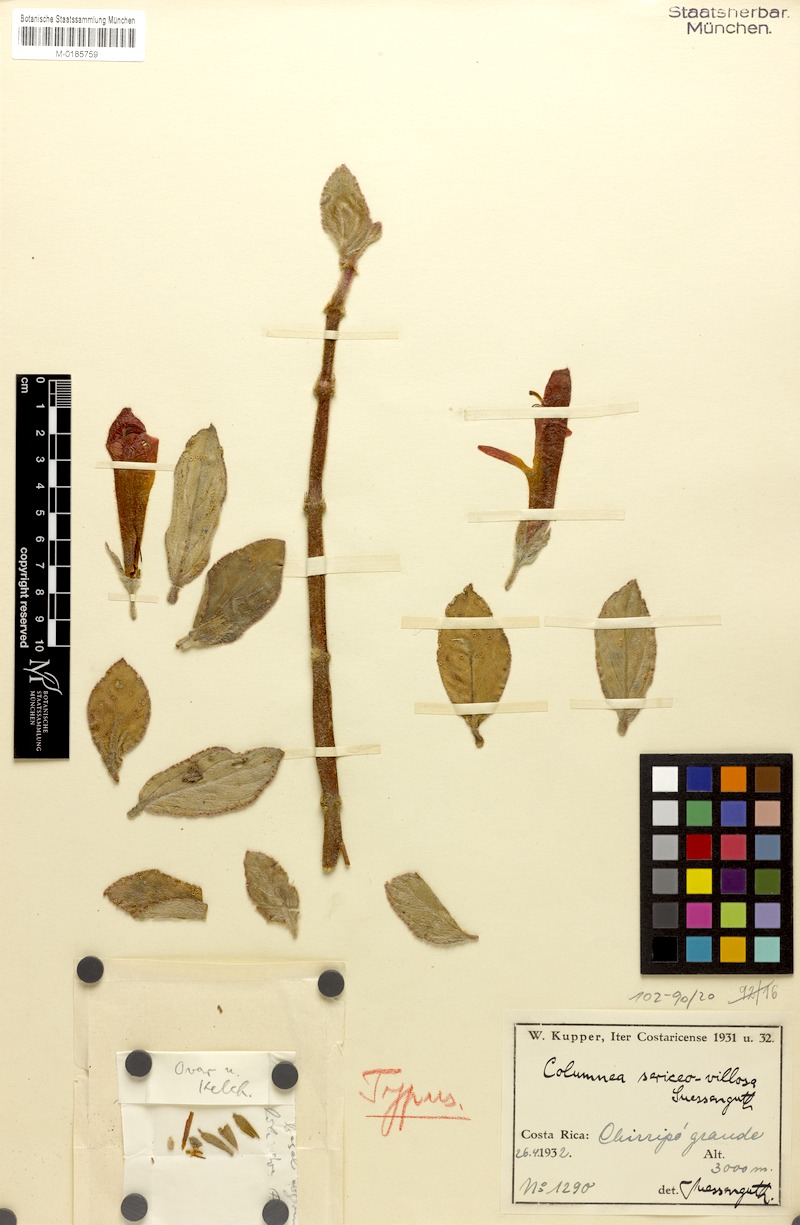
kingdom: Plantae
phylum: Tracheophyta
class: Magnoliopsida
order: Lamiales
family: Gesneriaceae
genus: Columnea
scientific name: Columnea sericeovillosa
